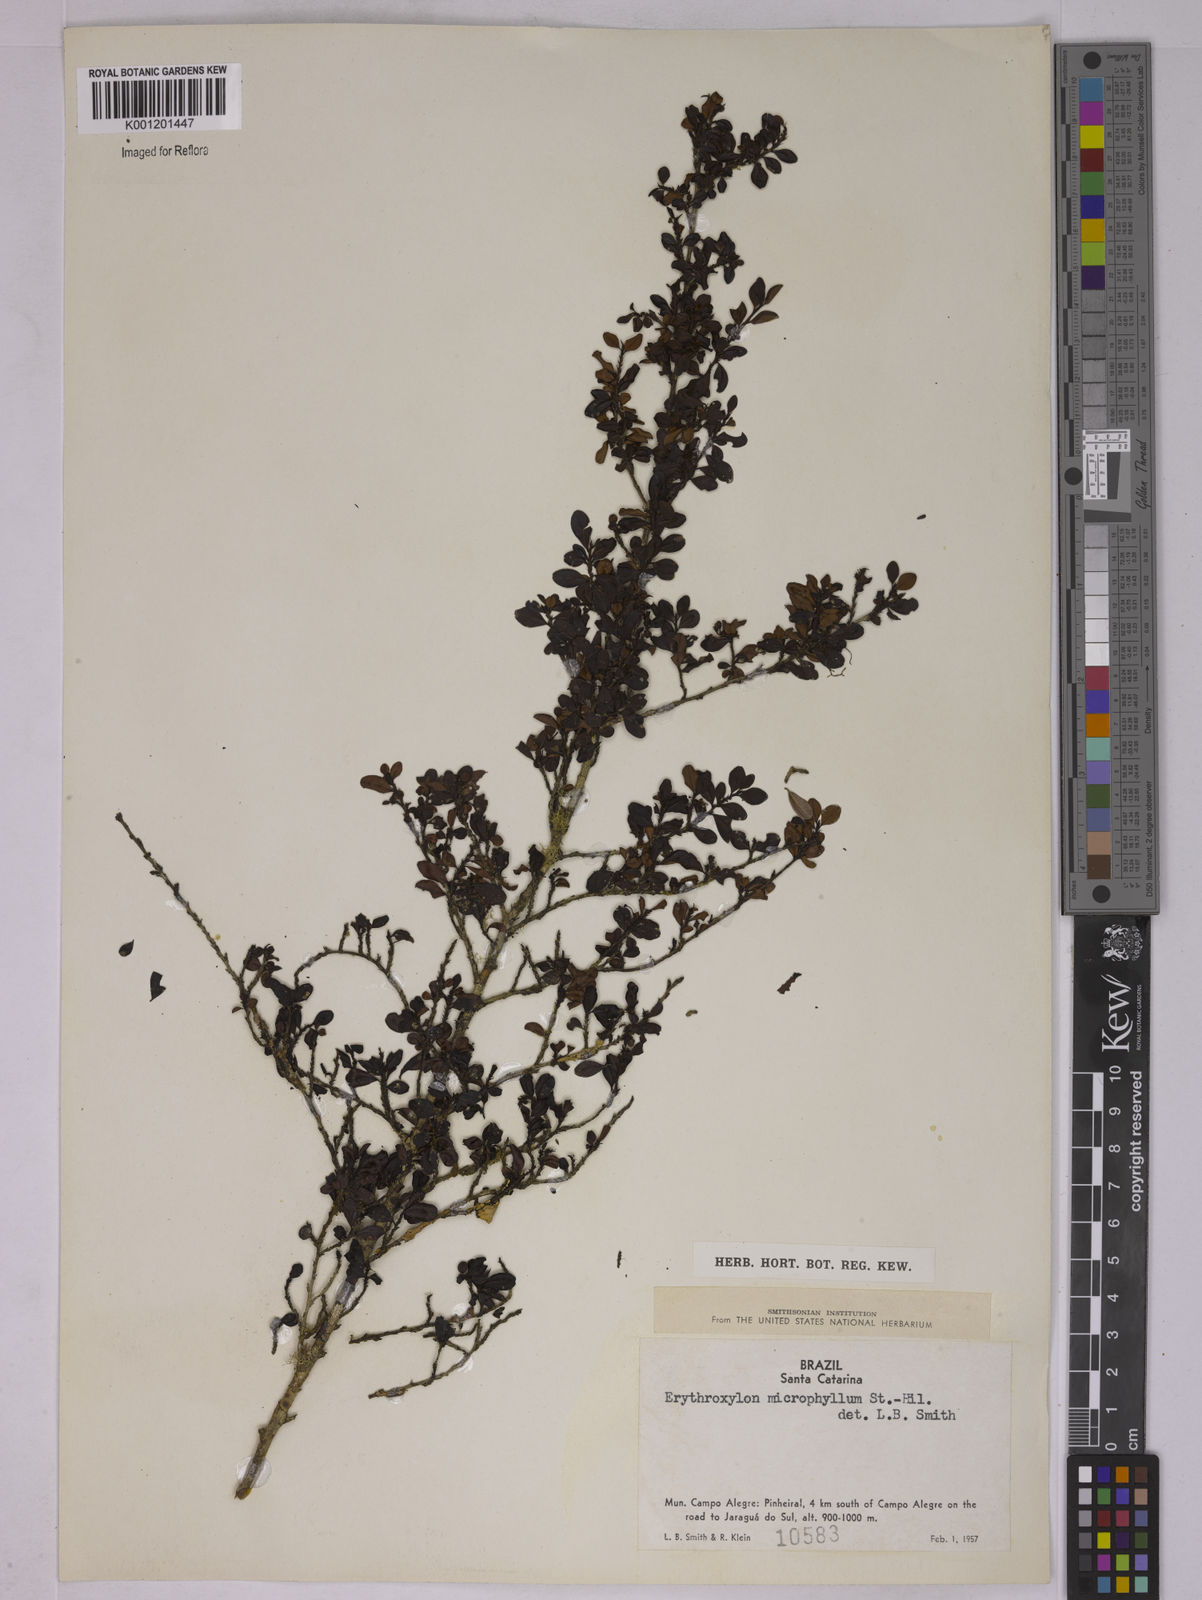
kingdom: Plantae
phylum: Tracheophyta
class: Magnoliopsida
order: Malpighiales
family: Erythroxylaceae
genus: Erythroxylum
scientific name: Erythroxylum microphyllum
